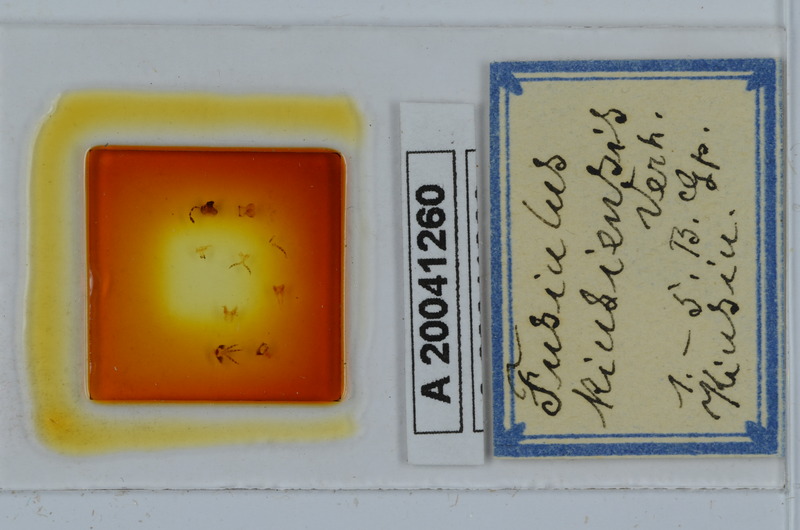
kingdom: Animalia
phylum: Arthropoda
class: Diplopoda
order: Julida
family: Julidae
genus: Anaulaciulus
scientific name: Anaulaciulus kiusiensis
